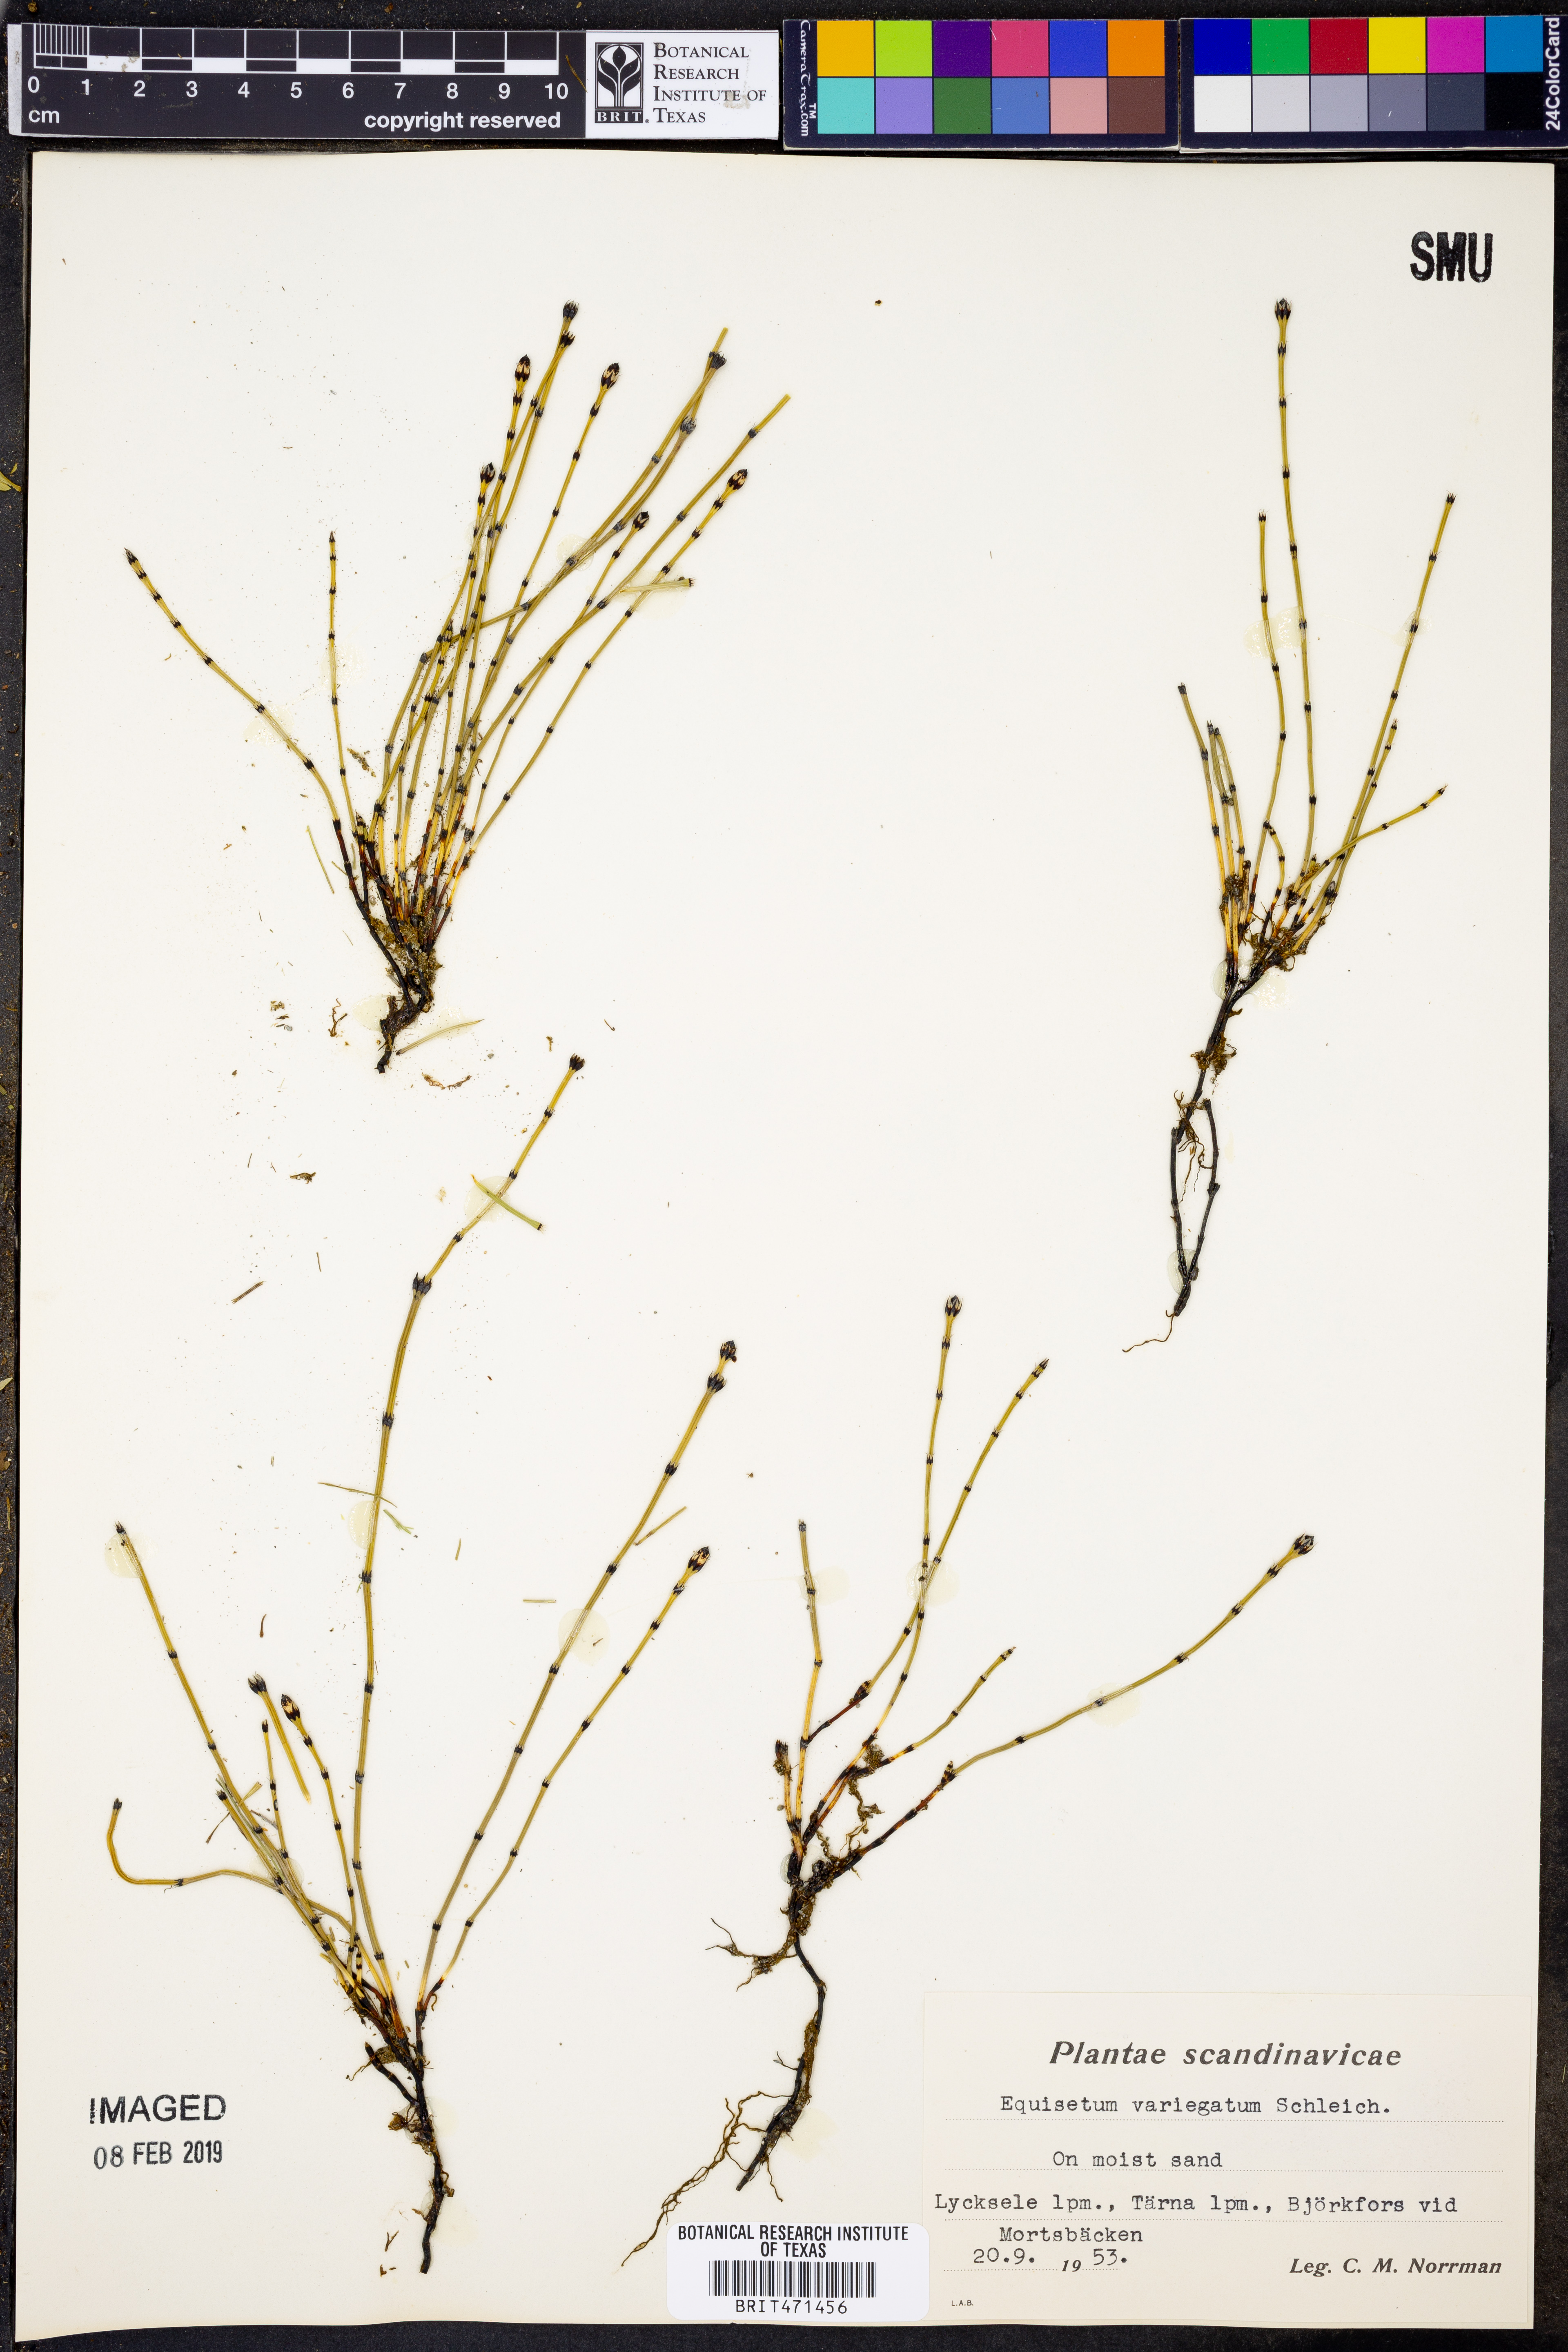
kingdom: Plantae
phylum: Tracheophyta
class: Polypodiopsida
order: Equisetales
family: Equisetaceae
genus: Equisetum
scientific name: Equisetum variegatum
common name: Variegated horsetail
